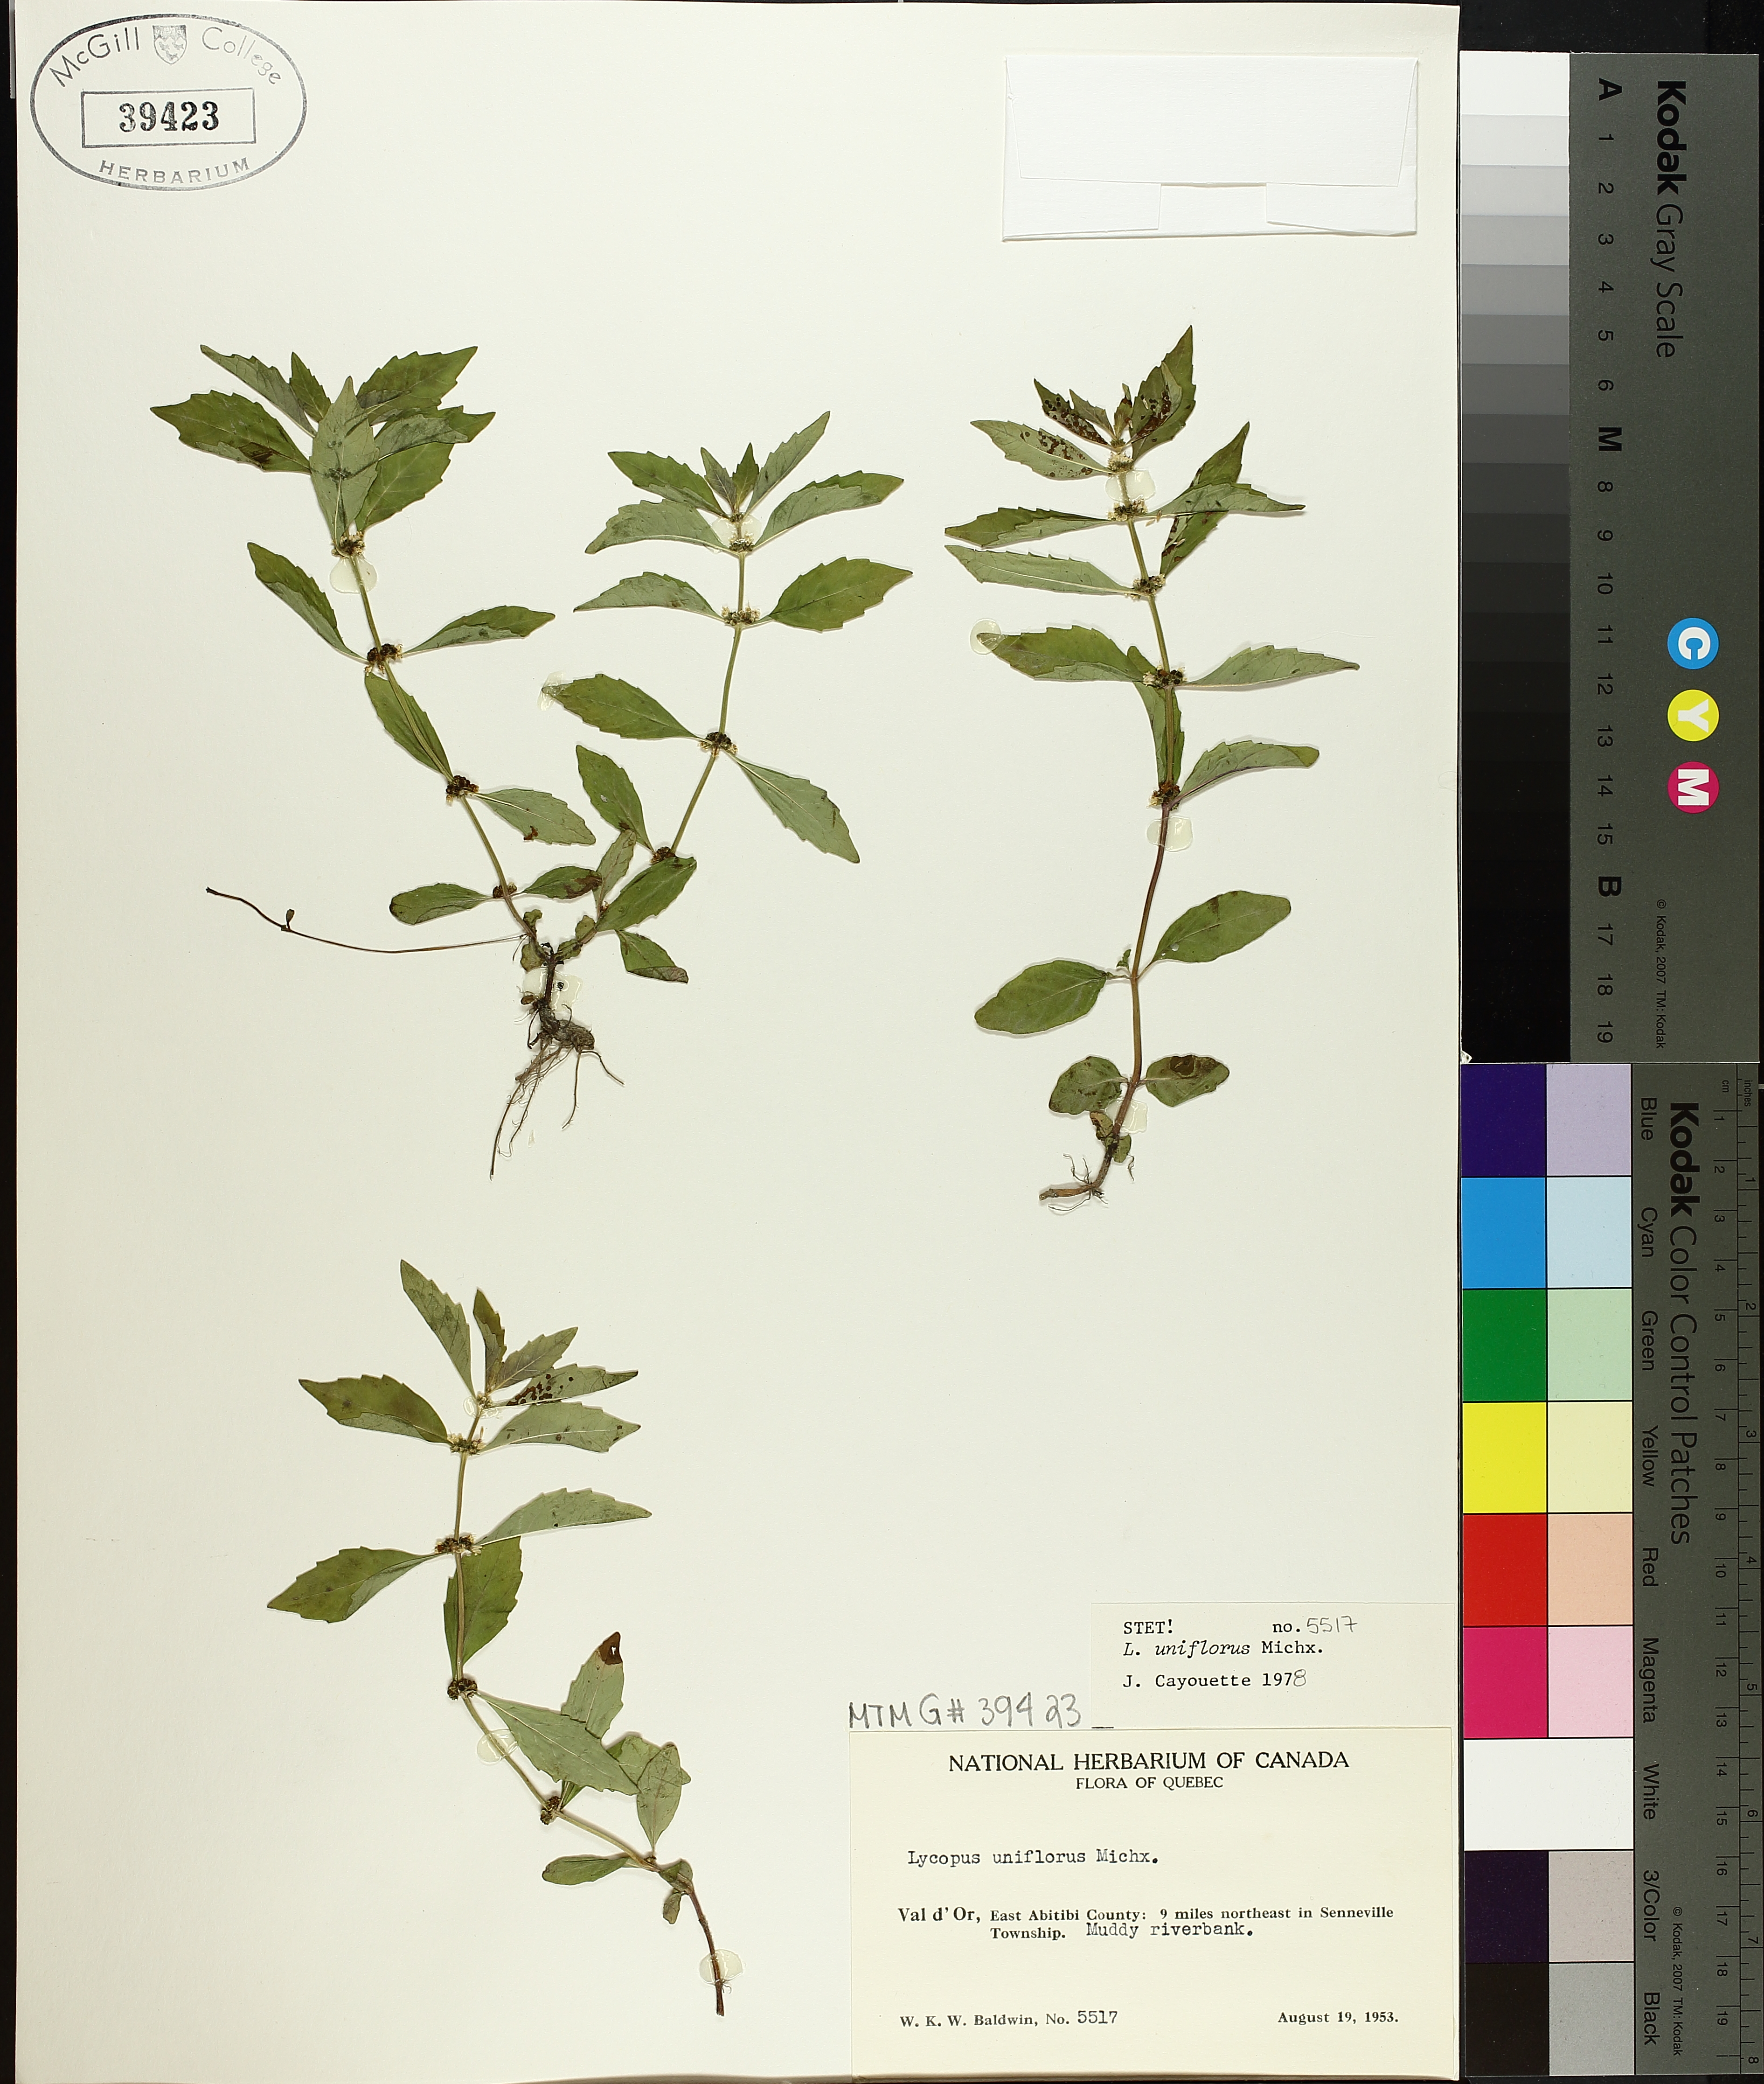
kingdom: Plantae
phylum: Tracheophyta
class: Magnoliopsida
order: Lamiales
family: Lamiaceae
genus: Lycopus
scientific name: Lycopus uniflorus
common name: Northern bugleweed
